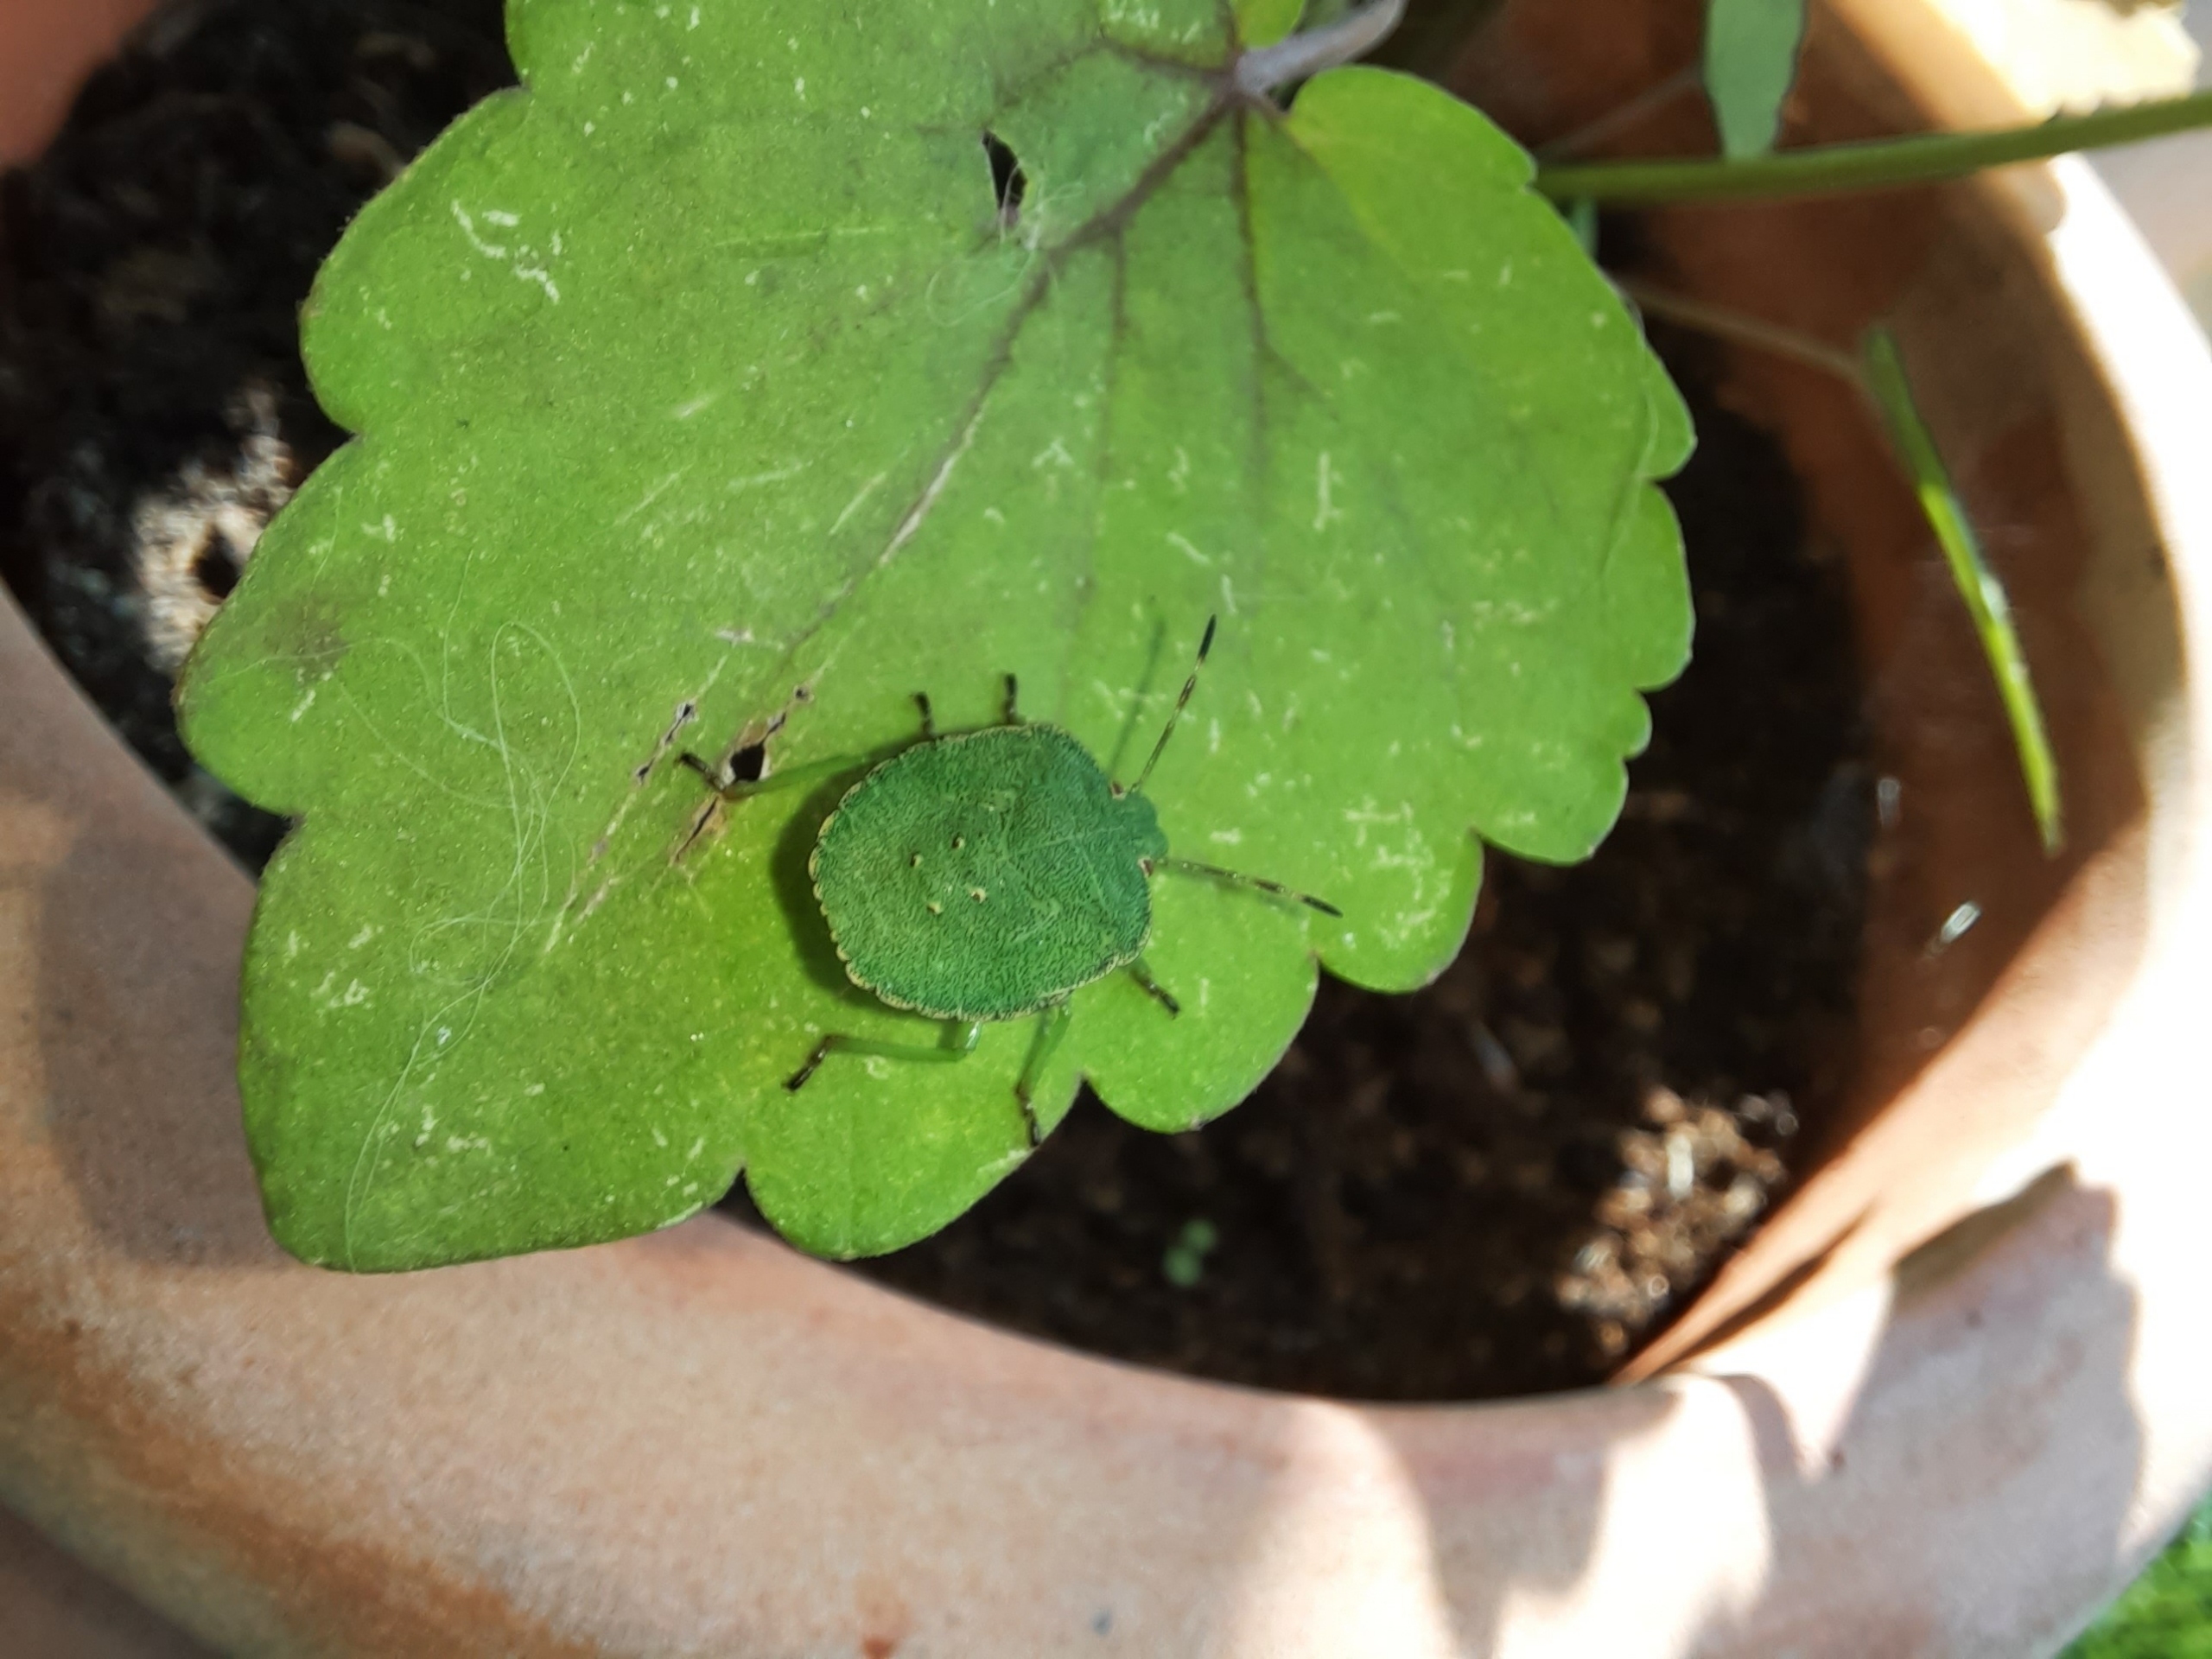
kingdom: Animalia
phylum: Arthropoda
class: Insecta
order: Hemiptera
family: Pentatomidae
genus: Palomena
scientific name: Palomena prasina
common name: Grøn bredtæge
